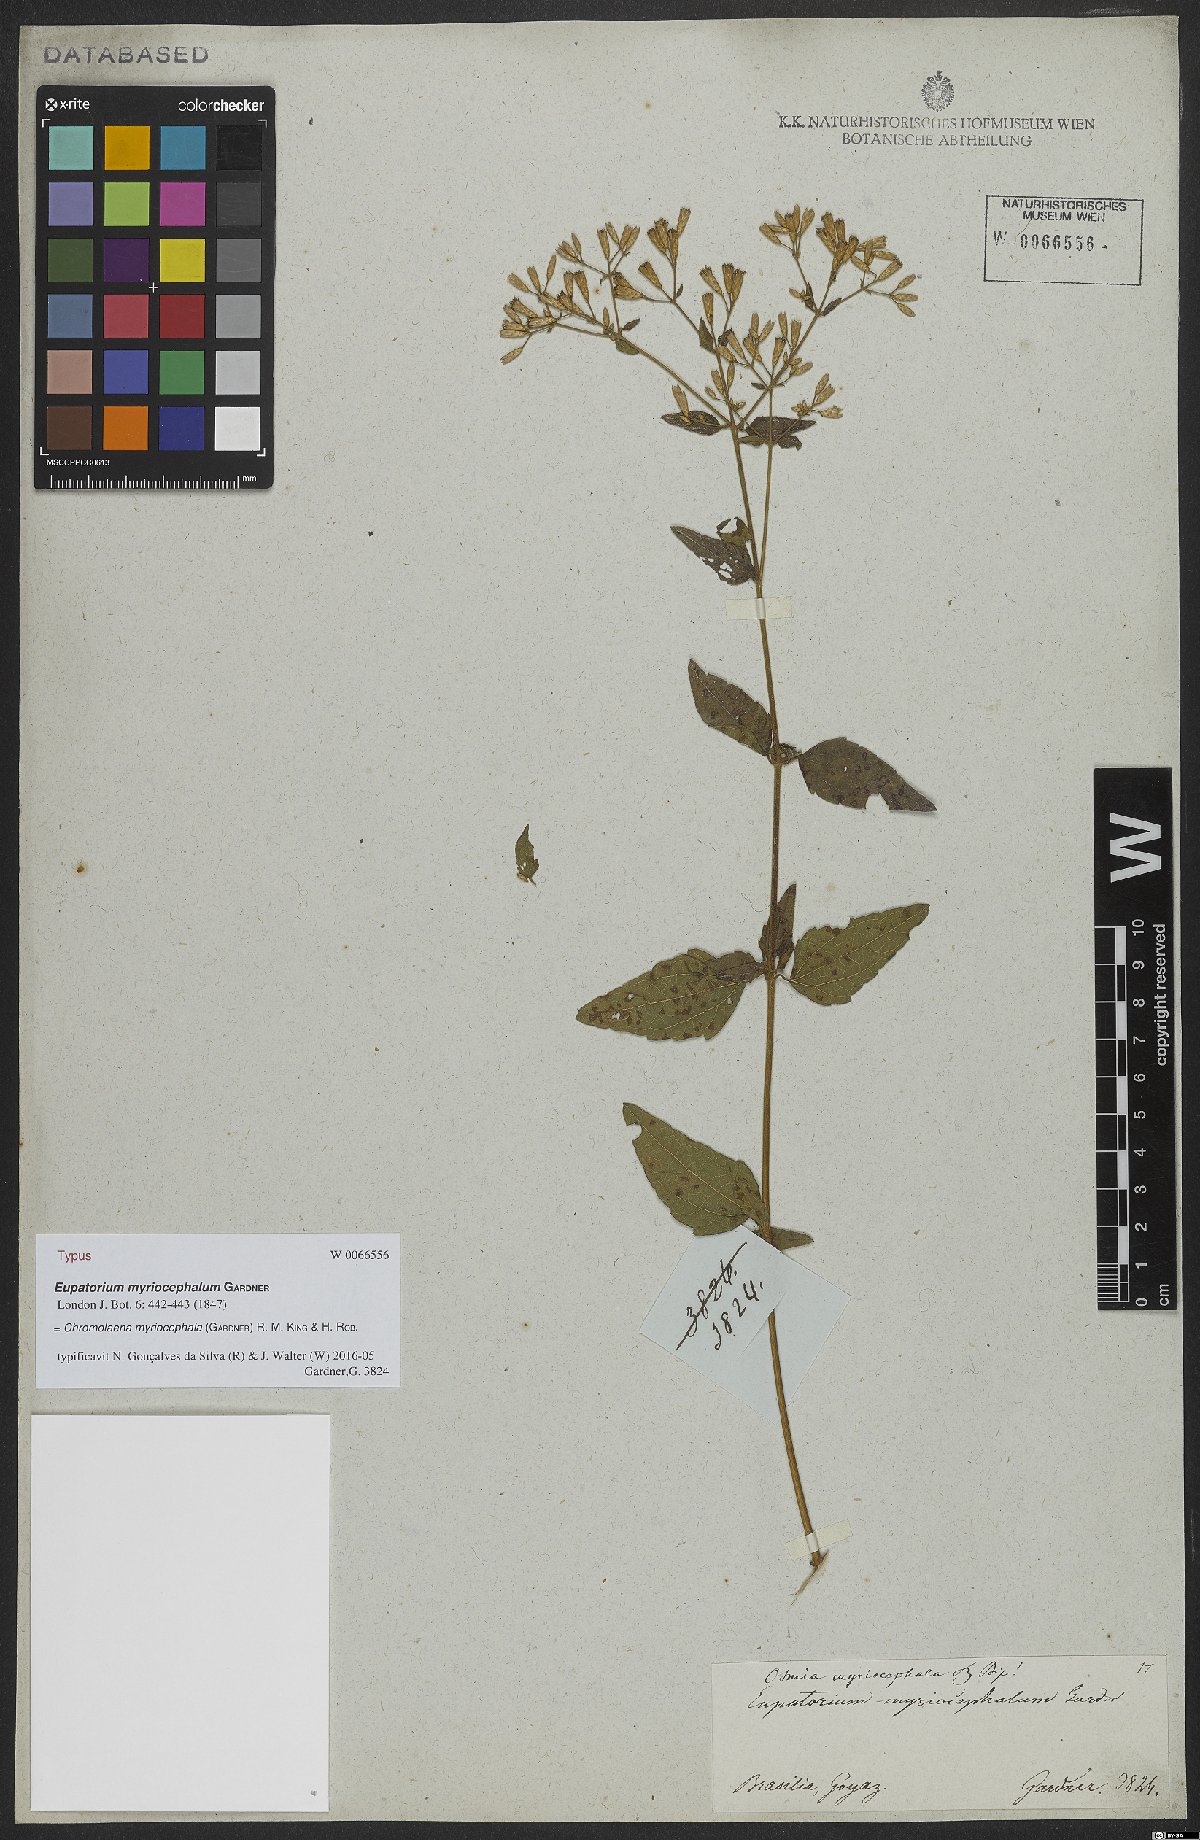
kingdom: Plantae
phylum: Tracheophyta
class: Magnoliopsida
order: Asterales
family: Asteraceae
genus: Chromolaena
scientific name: Chromolaena myriocephala
